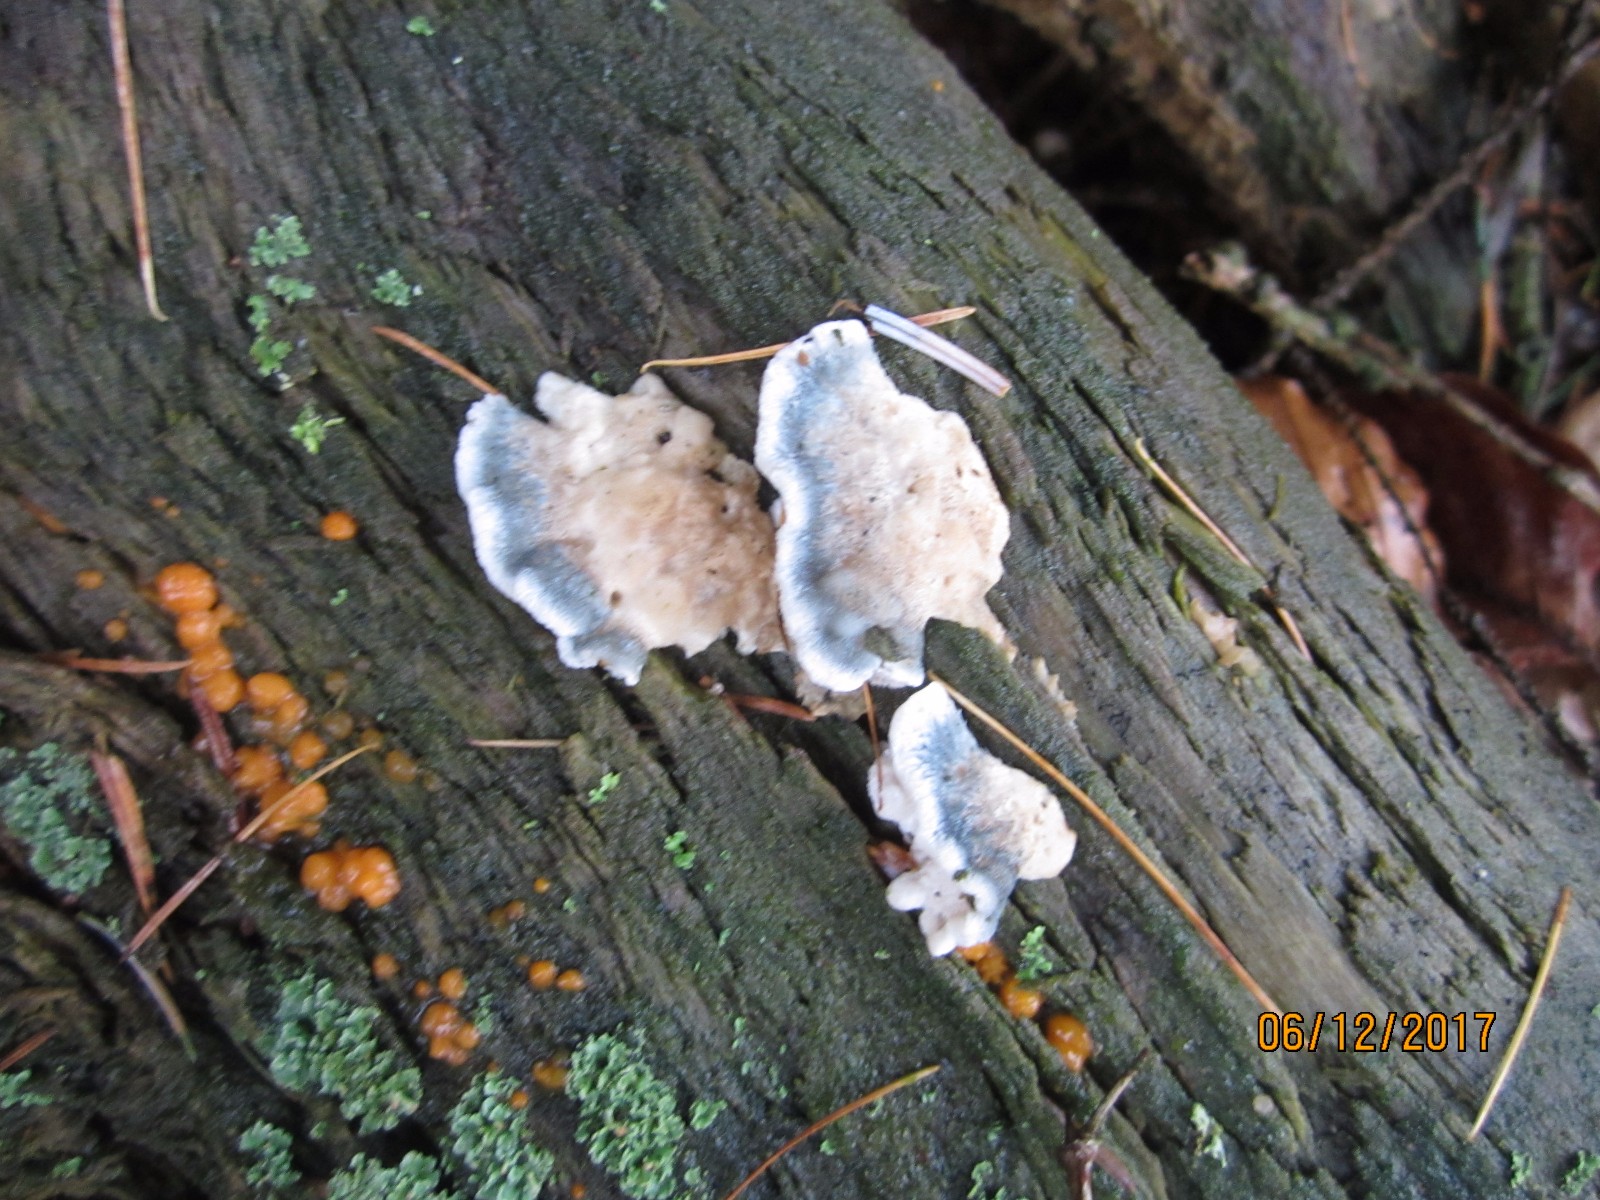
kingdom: Fungi
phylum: Basidiomycota
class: Agaricomycetes
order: Polyporales
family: Polyporaceae
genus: Cyanosporus
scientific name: Cyanosporus caesius
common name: blålig kødporesvamp
